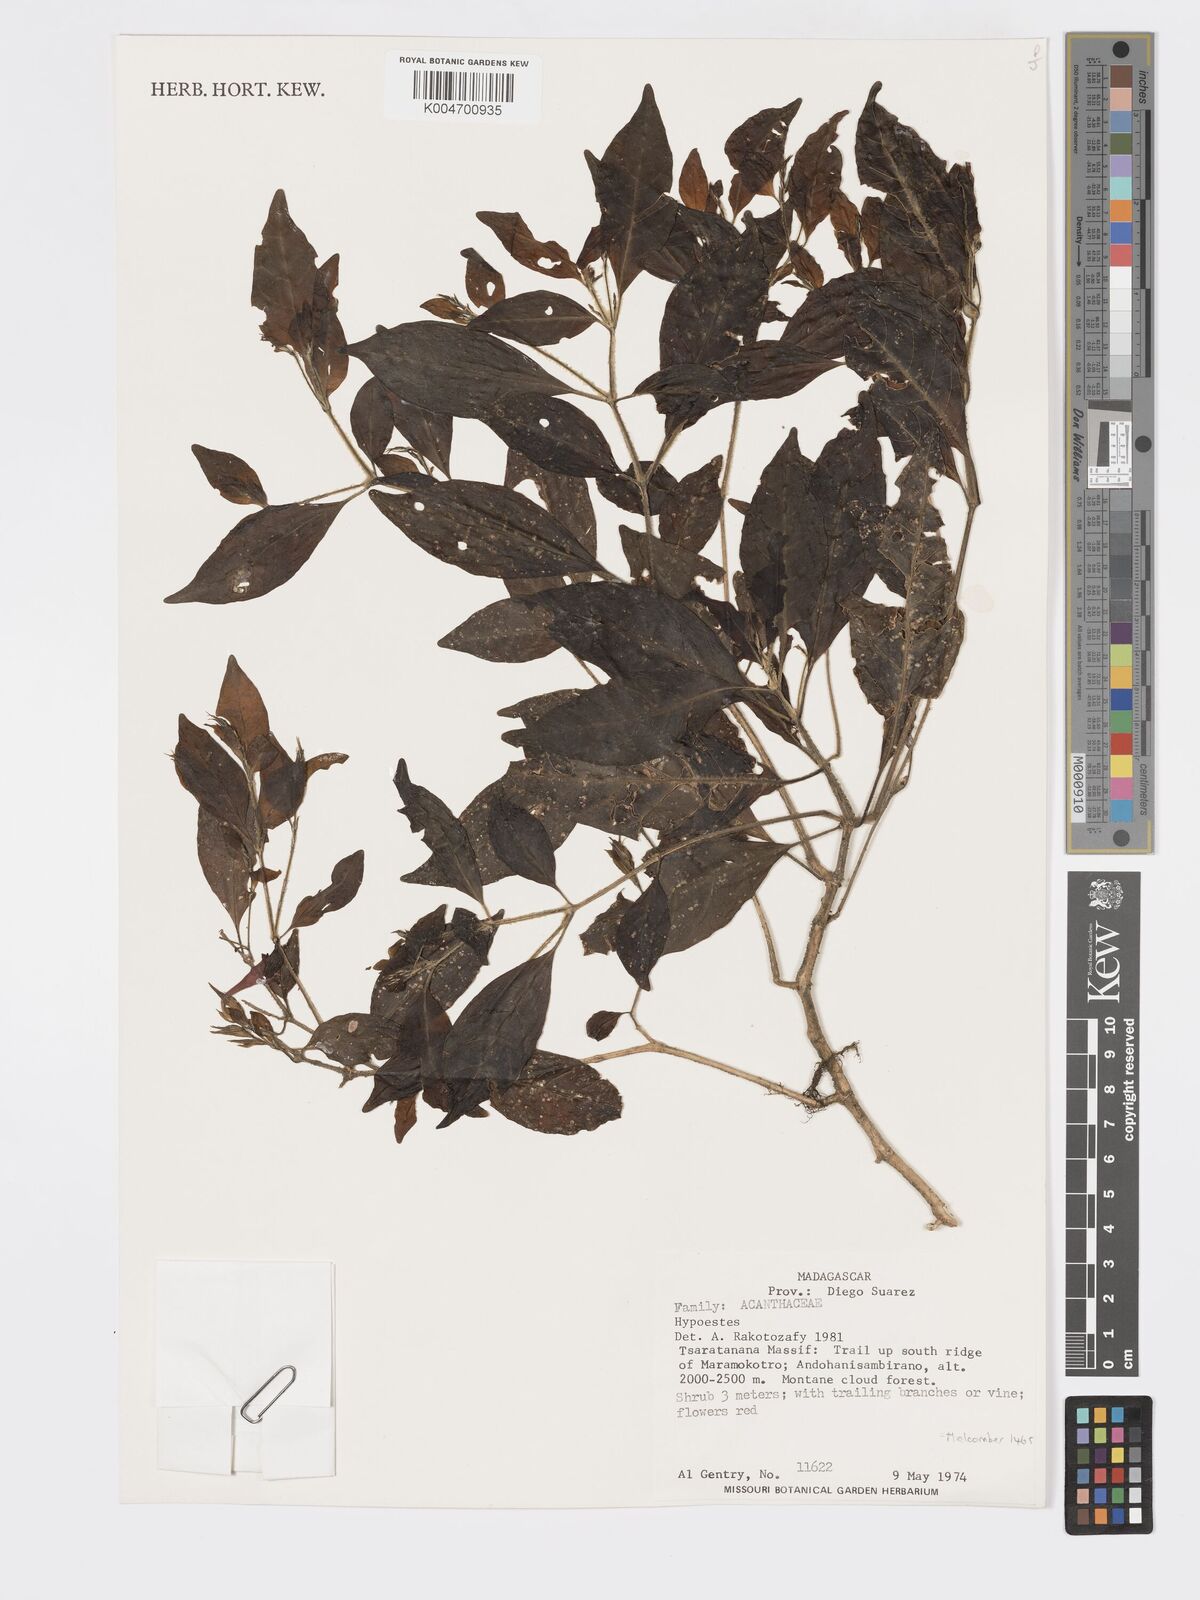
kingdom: Plantae
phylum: Tracheophyta
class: Magnoliopsida
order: Lamiales
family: Acanthaceae
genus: Hypoestes
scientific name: Hypoestes
